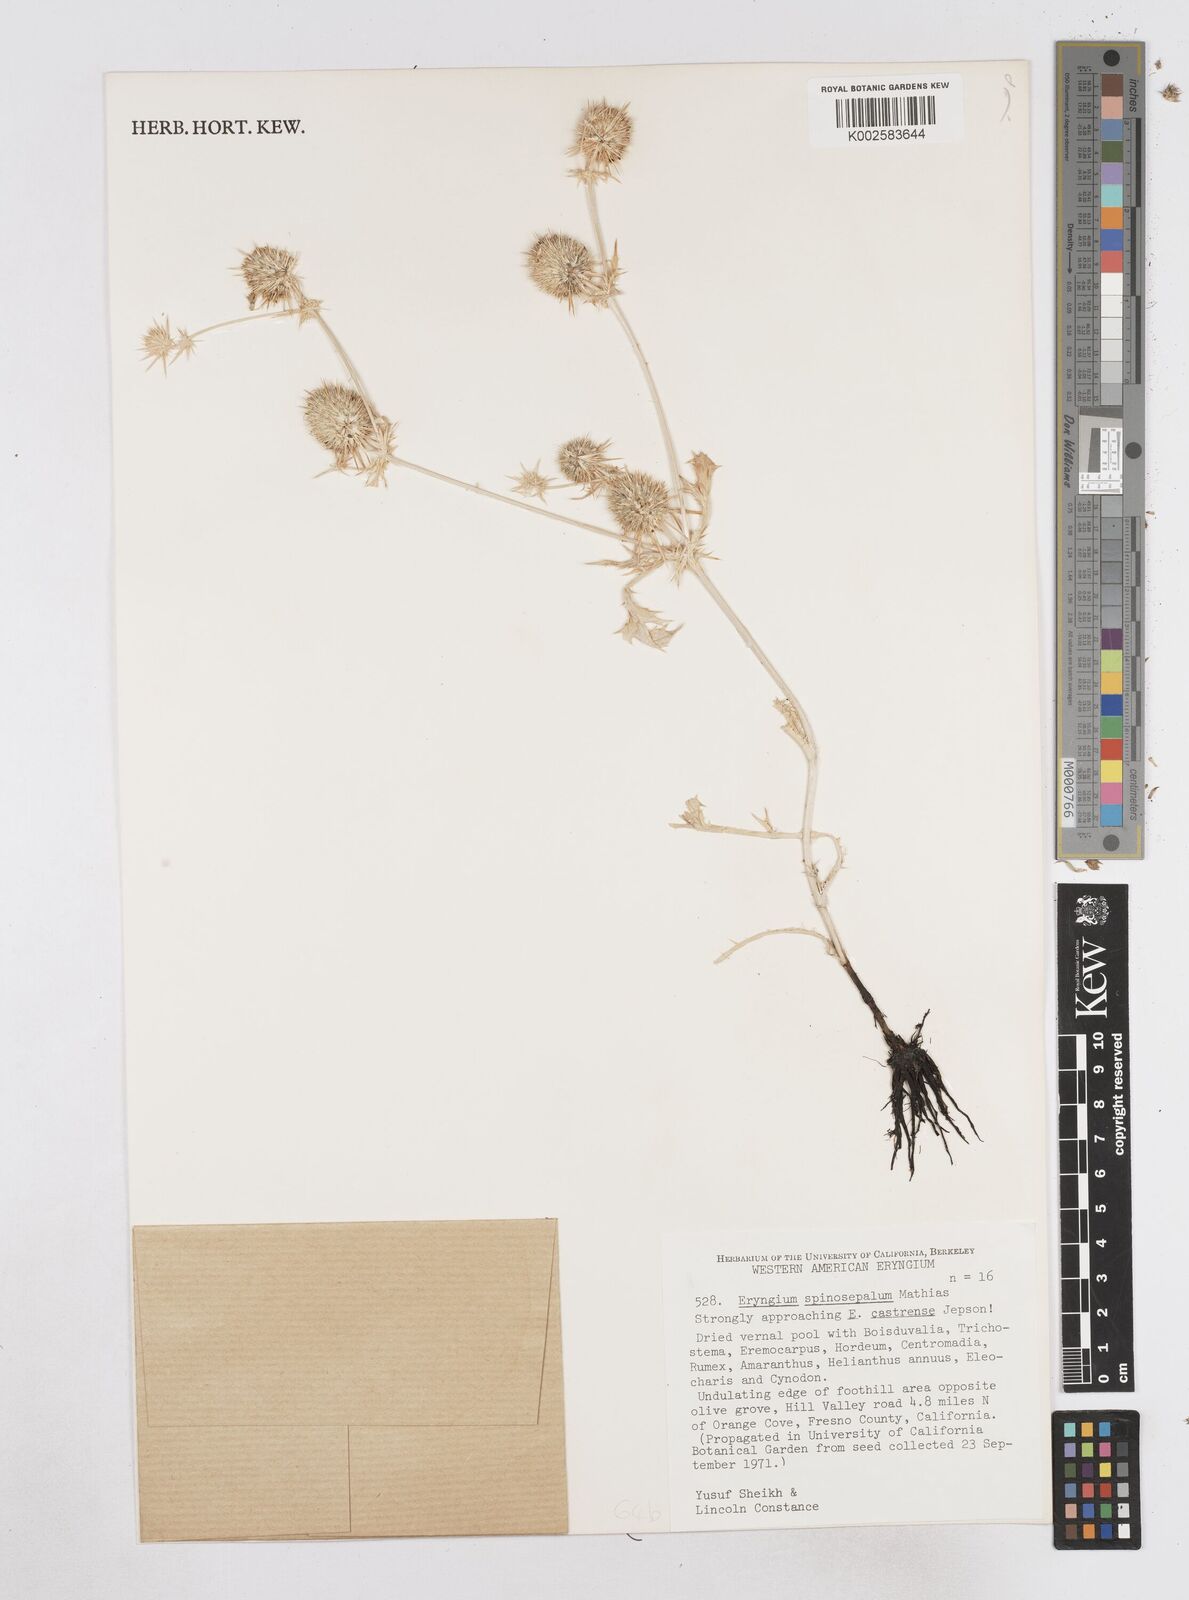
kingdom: Plantae
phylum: Tracheophyta
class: Magnoliopsida
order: Apiales
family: Apiaceae
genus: Eryngium
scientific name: Eryngium vaseyi
